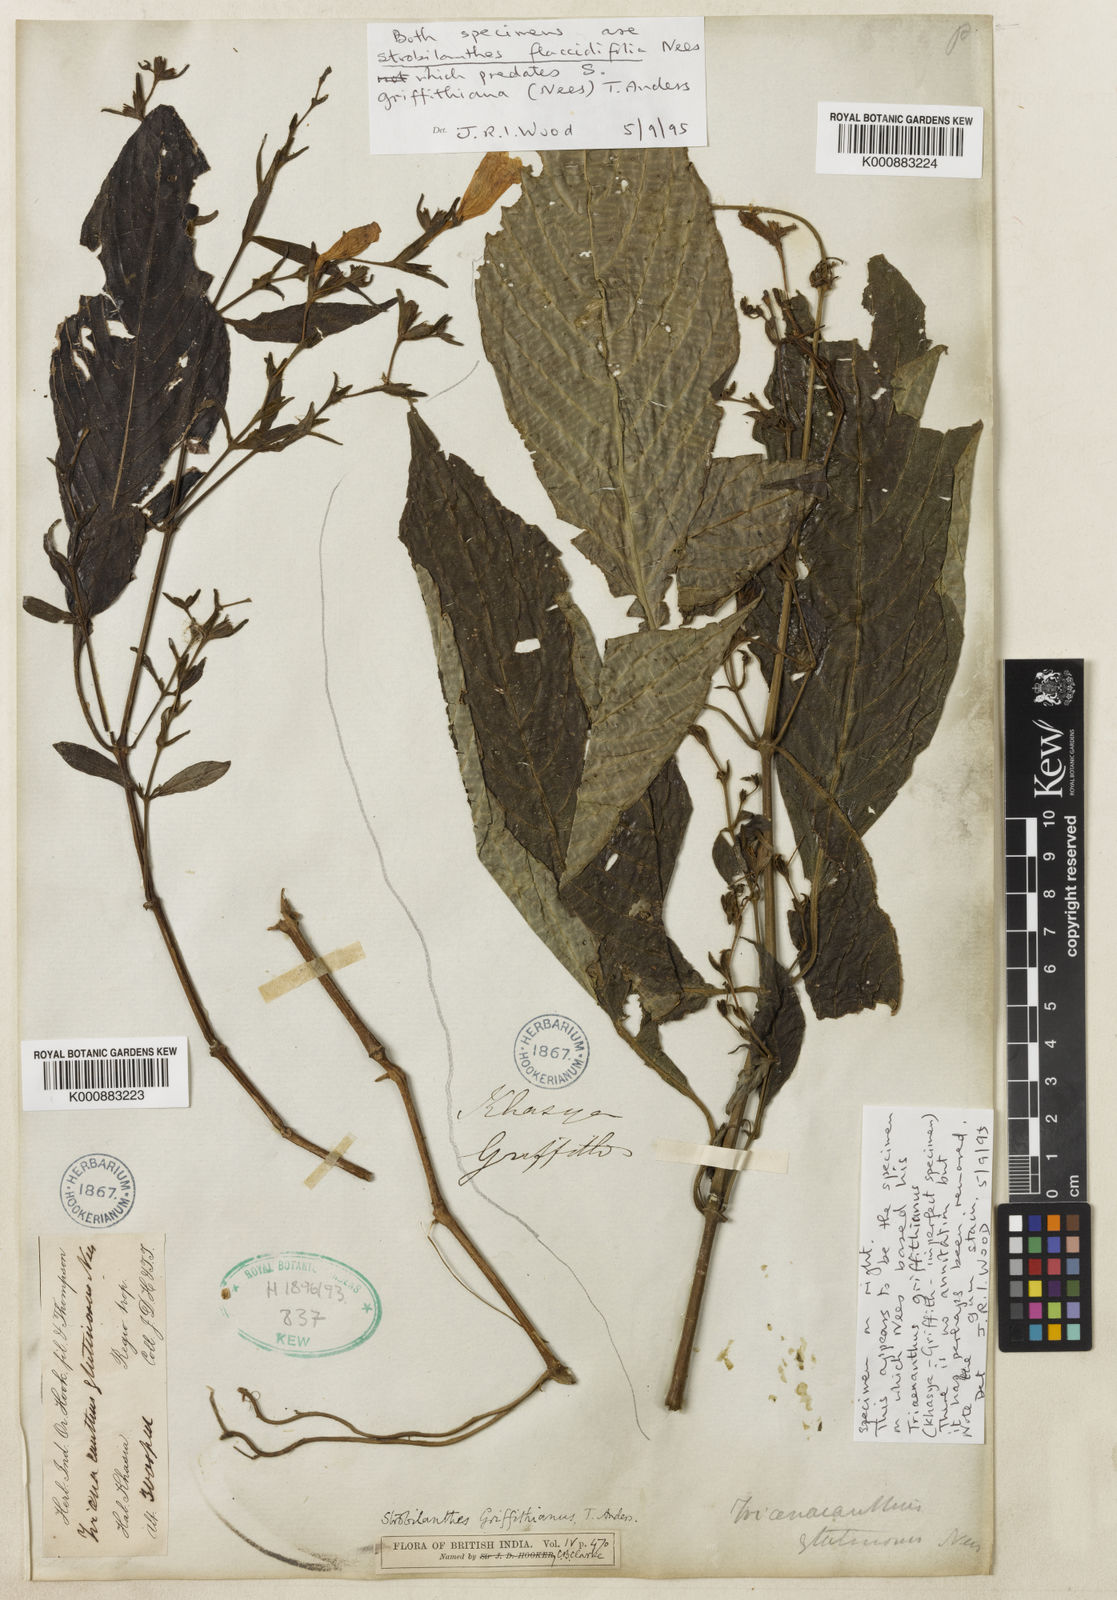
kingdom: Plantae
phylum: Tracheophyta
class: Magnoliopsida
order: Lamiales
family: Acanthaceae
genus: Strobilanthes
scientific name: Strobilanthes cusia
